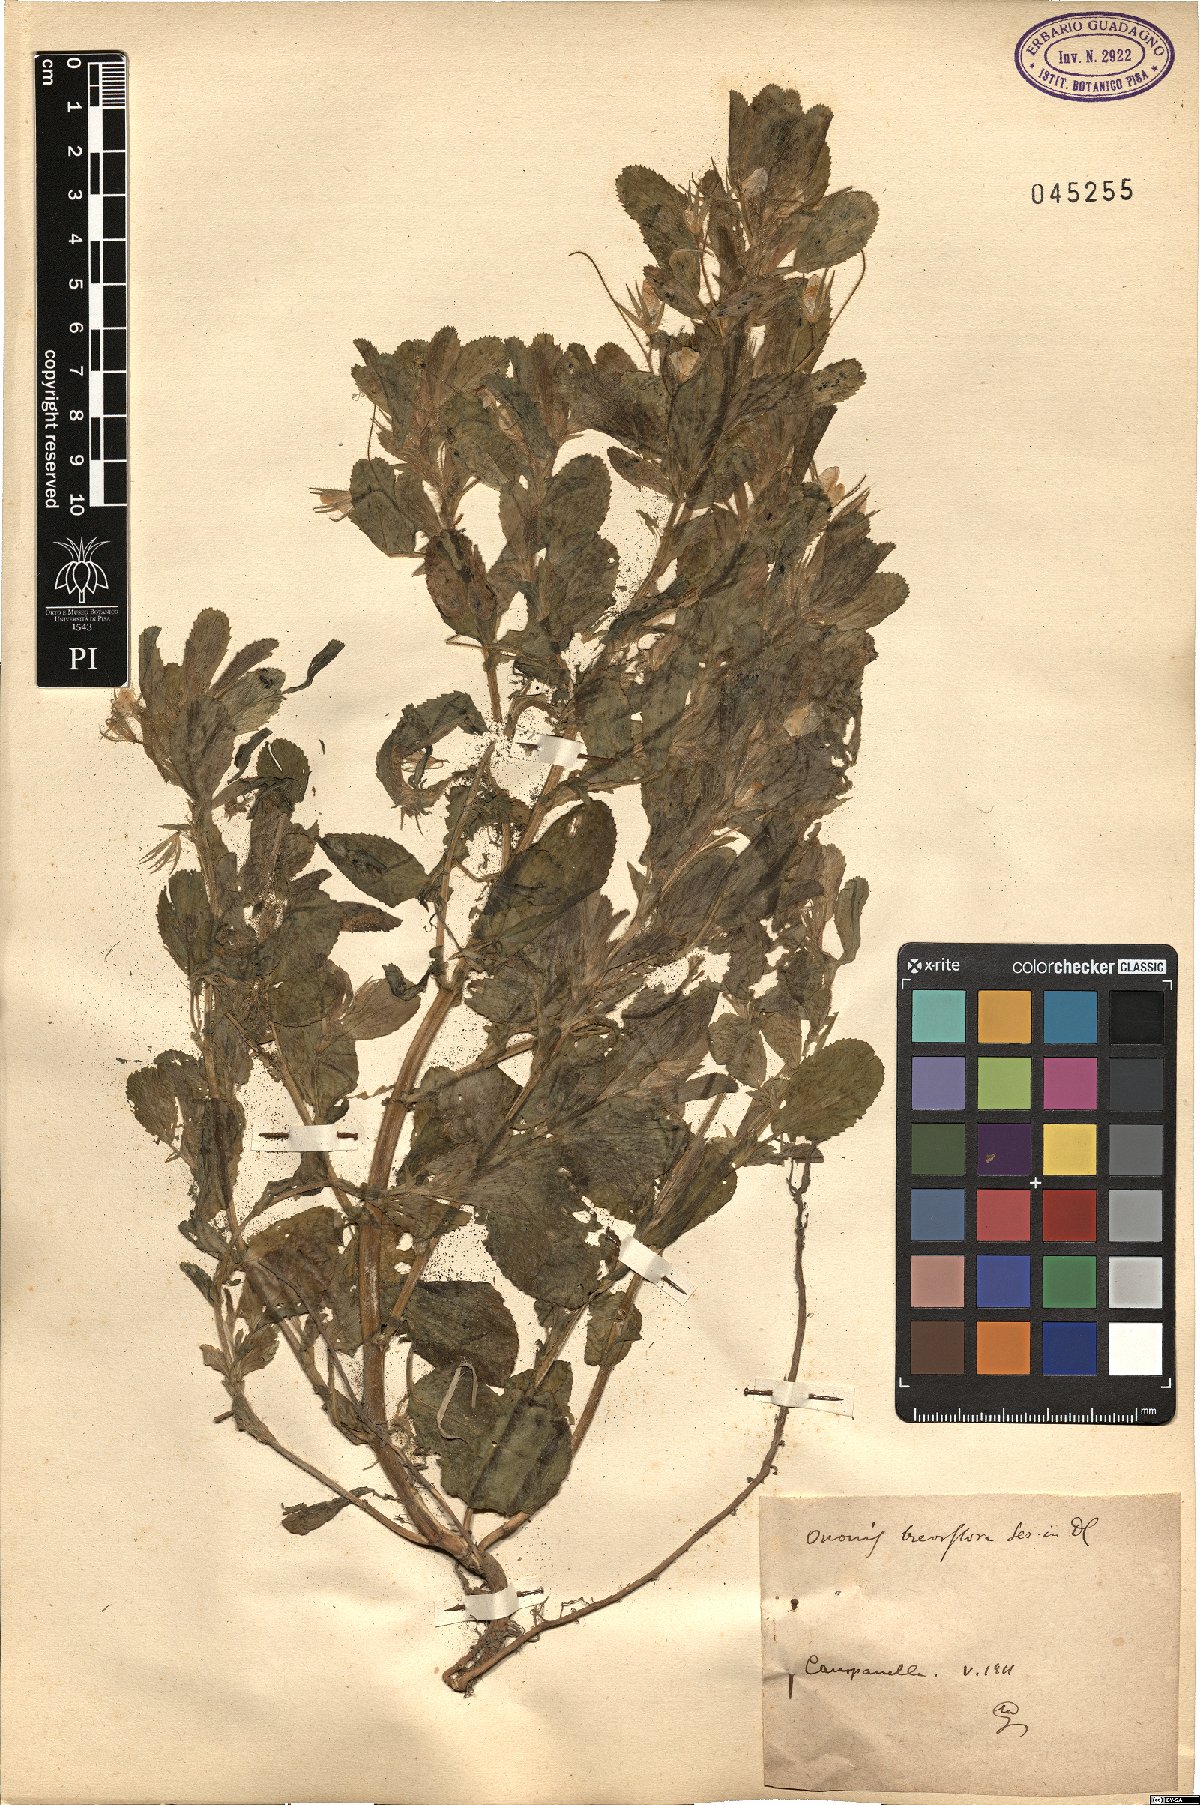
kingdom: Plantae
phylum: Tracheophyta
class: Magnoliopsida
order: Fabales
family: Fabaceae
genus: Ononis
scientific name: Ononis viscosa
